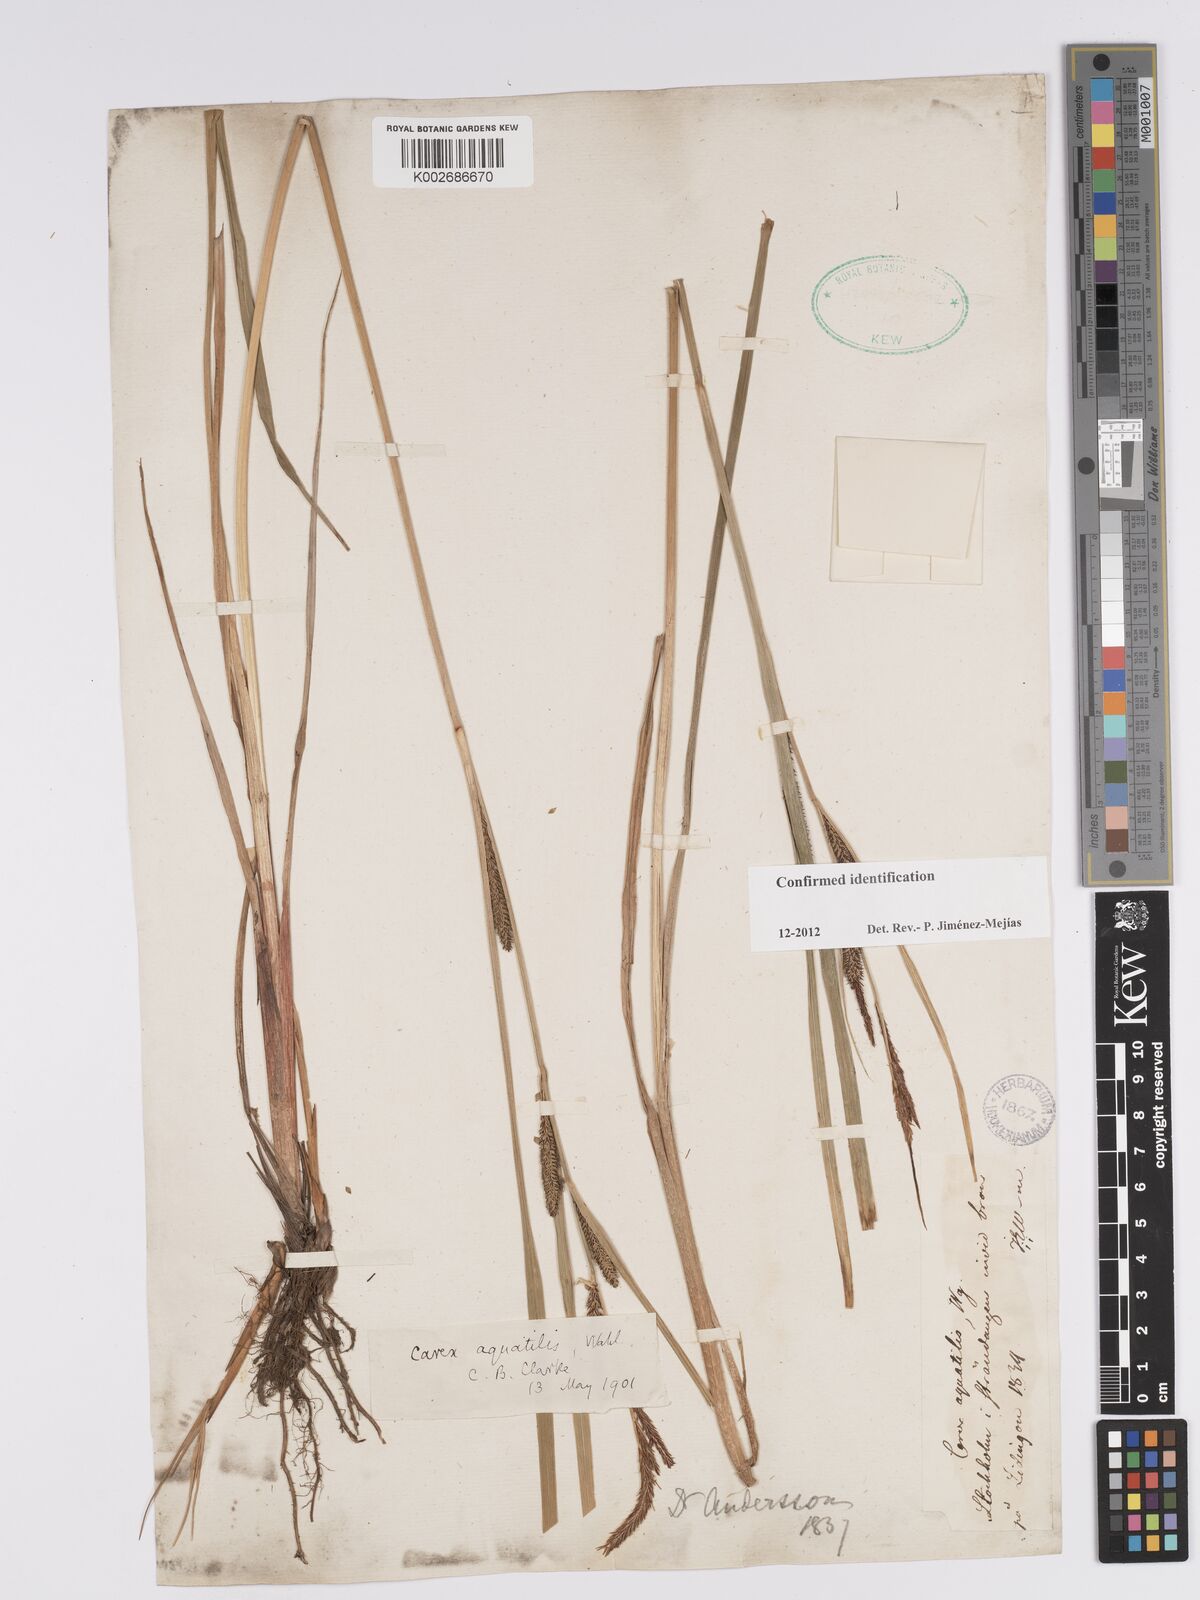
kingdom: Plantae
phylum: Tracheophyta
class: Liliopsida
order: Poales
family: Cyperaceae
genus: Carex
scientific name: Carex aquatilis
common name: Water sedge
